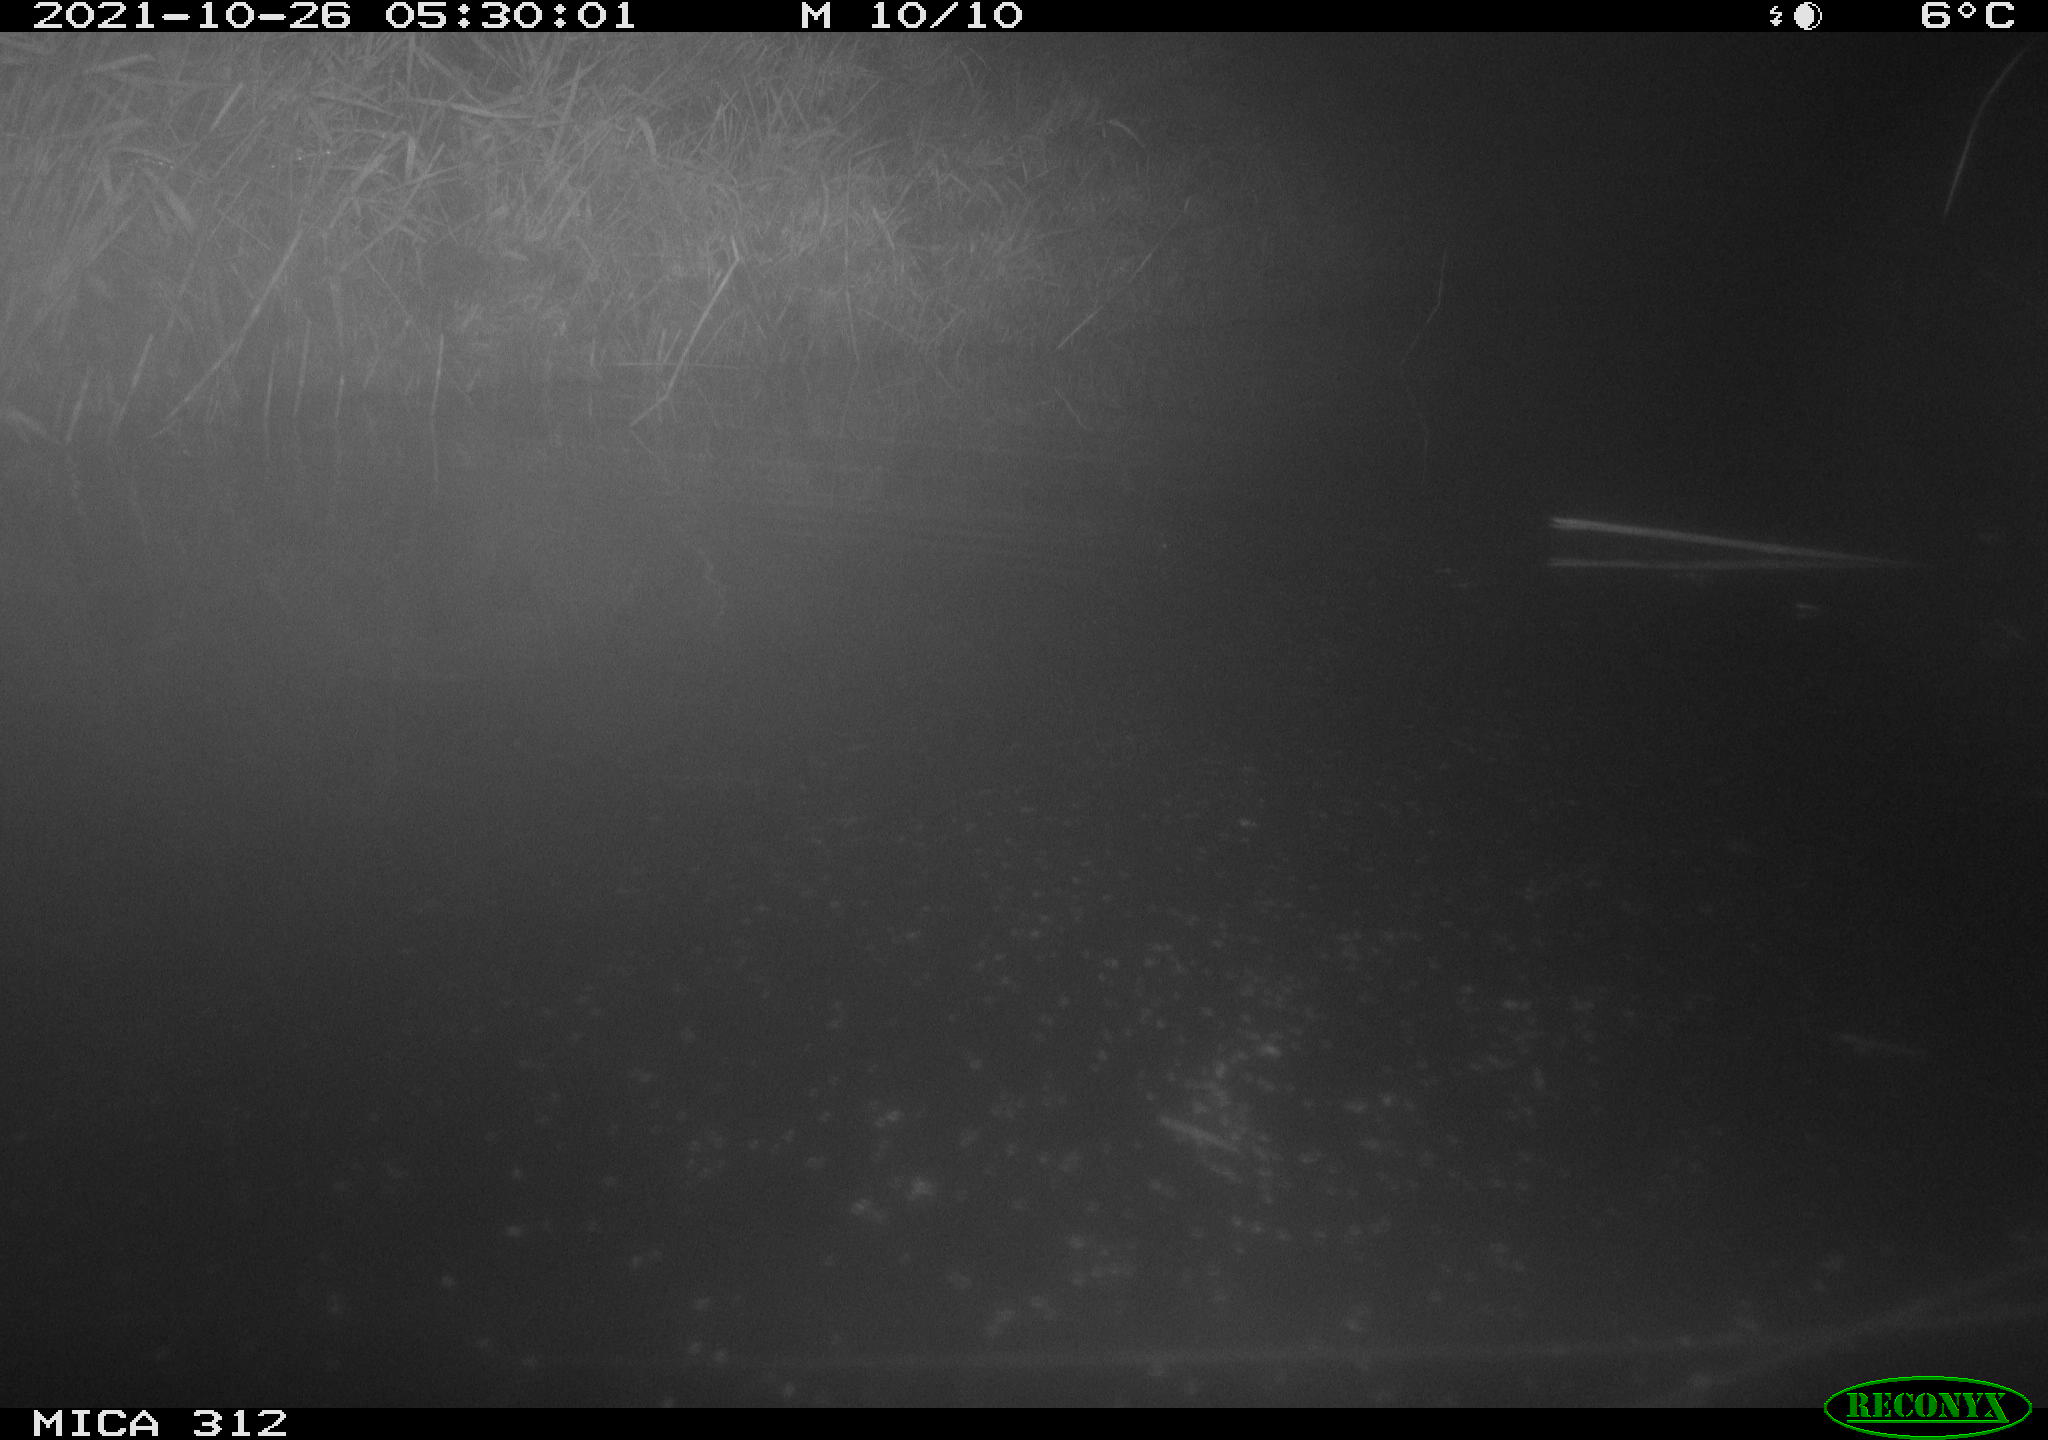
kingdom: Animalia
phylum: Chordata
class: Mammalia
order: Rodentia
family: Muridae
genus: Rattus
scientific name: Rattus norvegicus
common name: Brown rat
